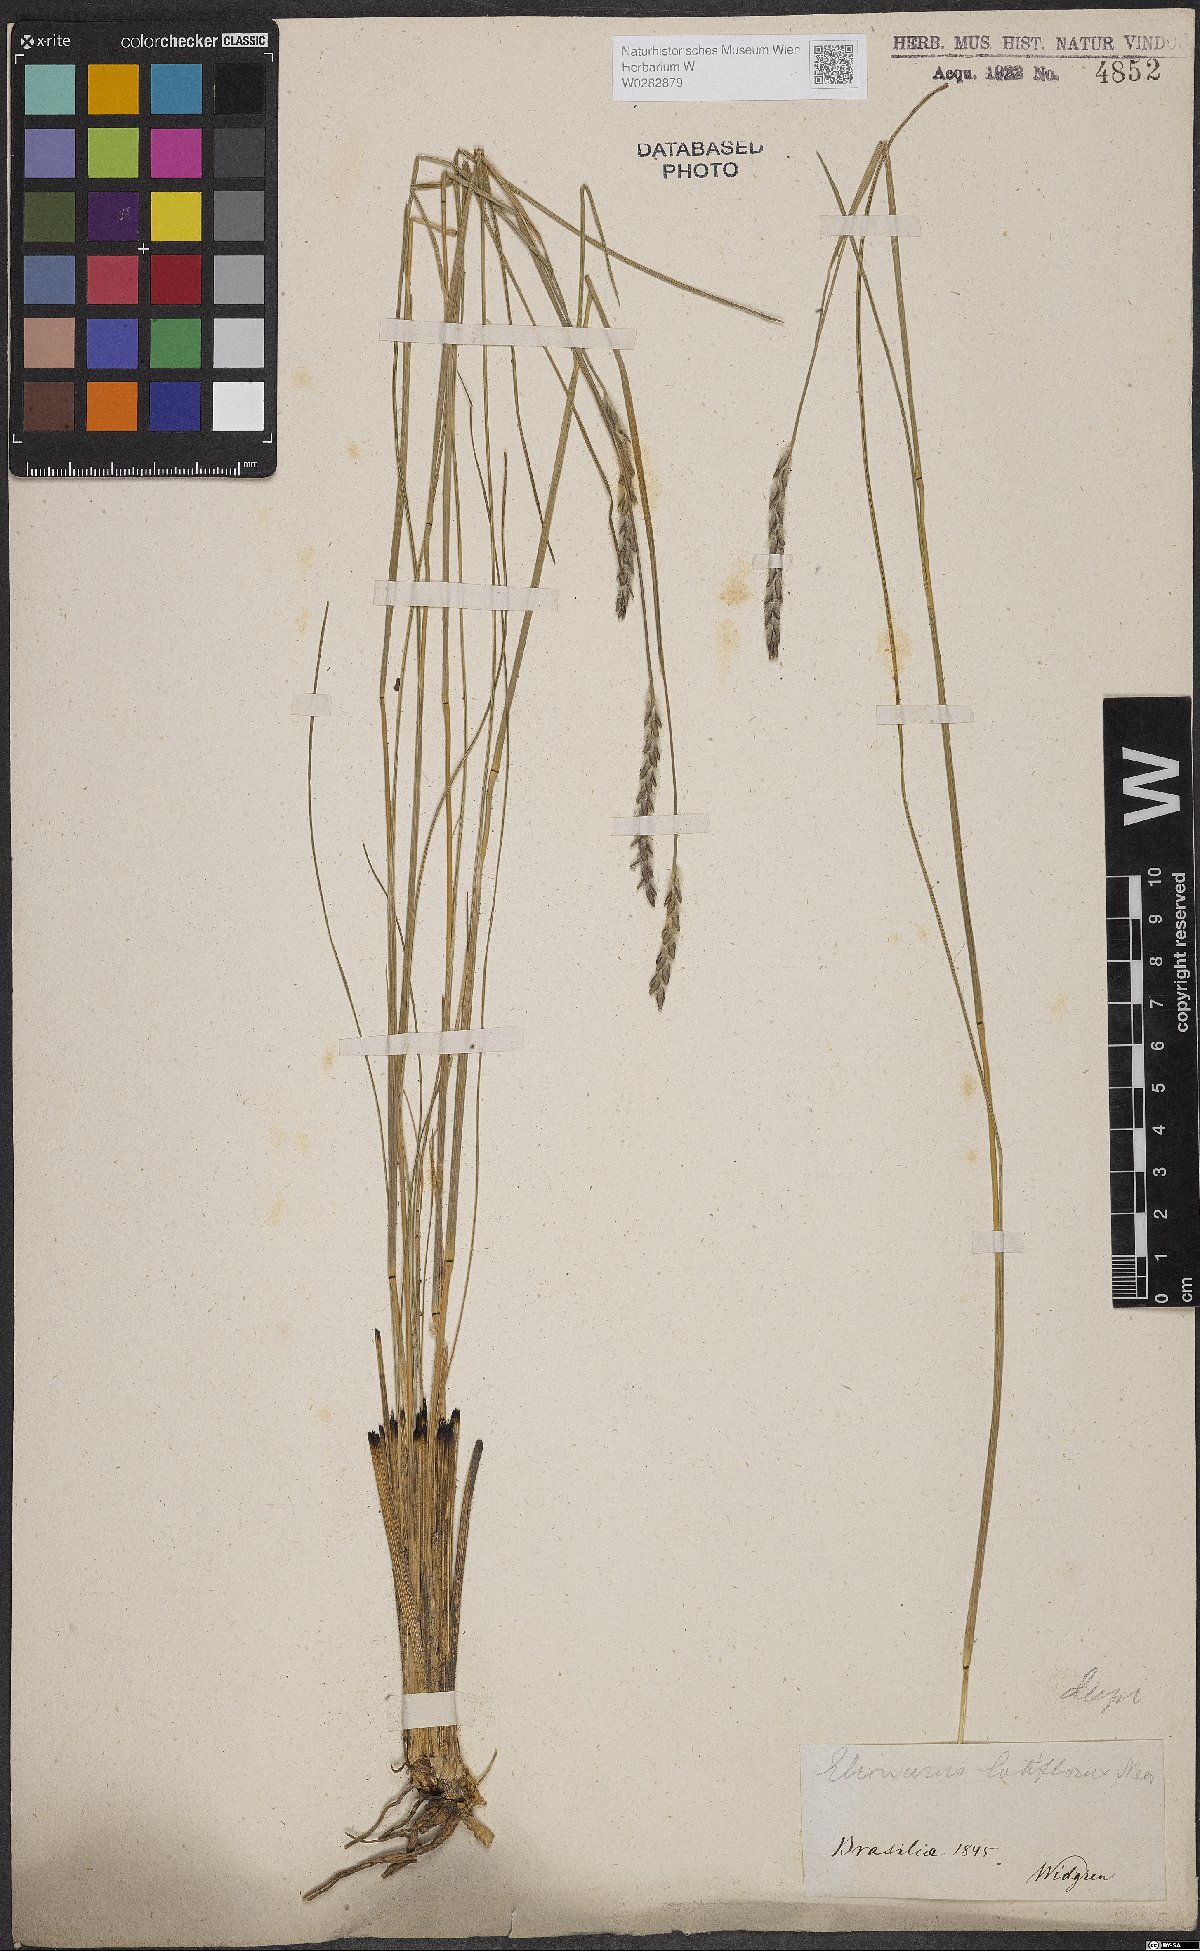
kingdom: Plantae
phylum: Tracheophyta
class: Liliopsida
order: Poales
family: Poaceae
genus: Elionurus
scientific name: Elionurus muticus
